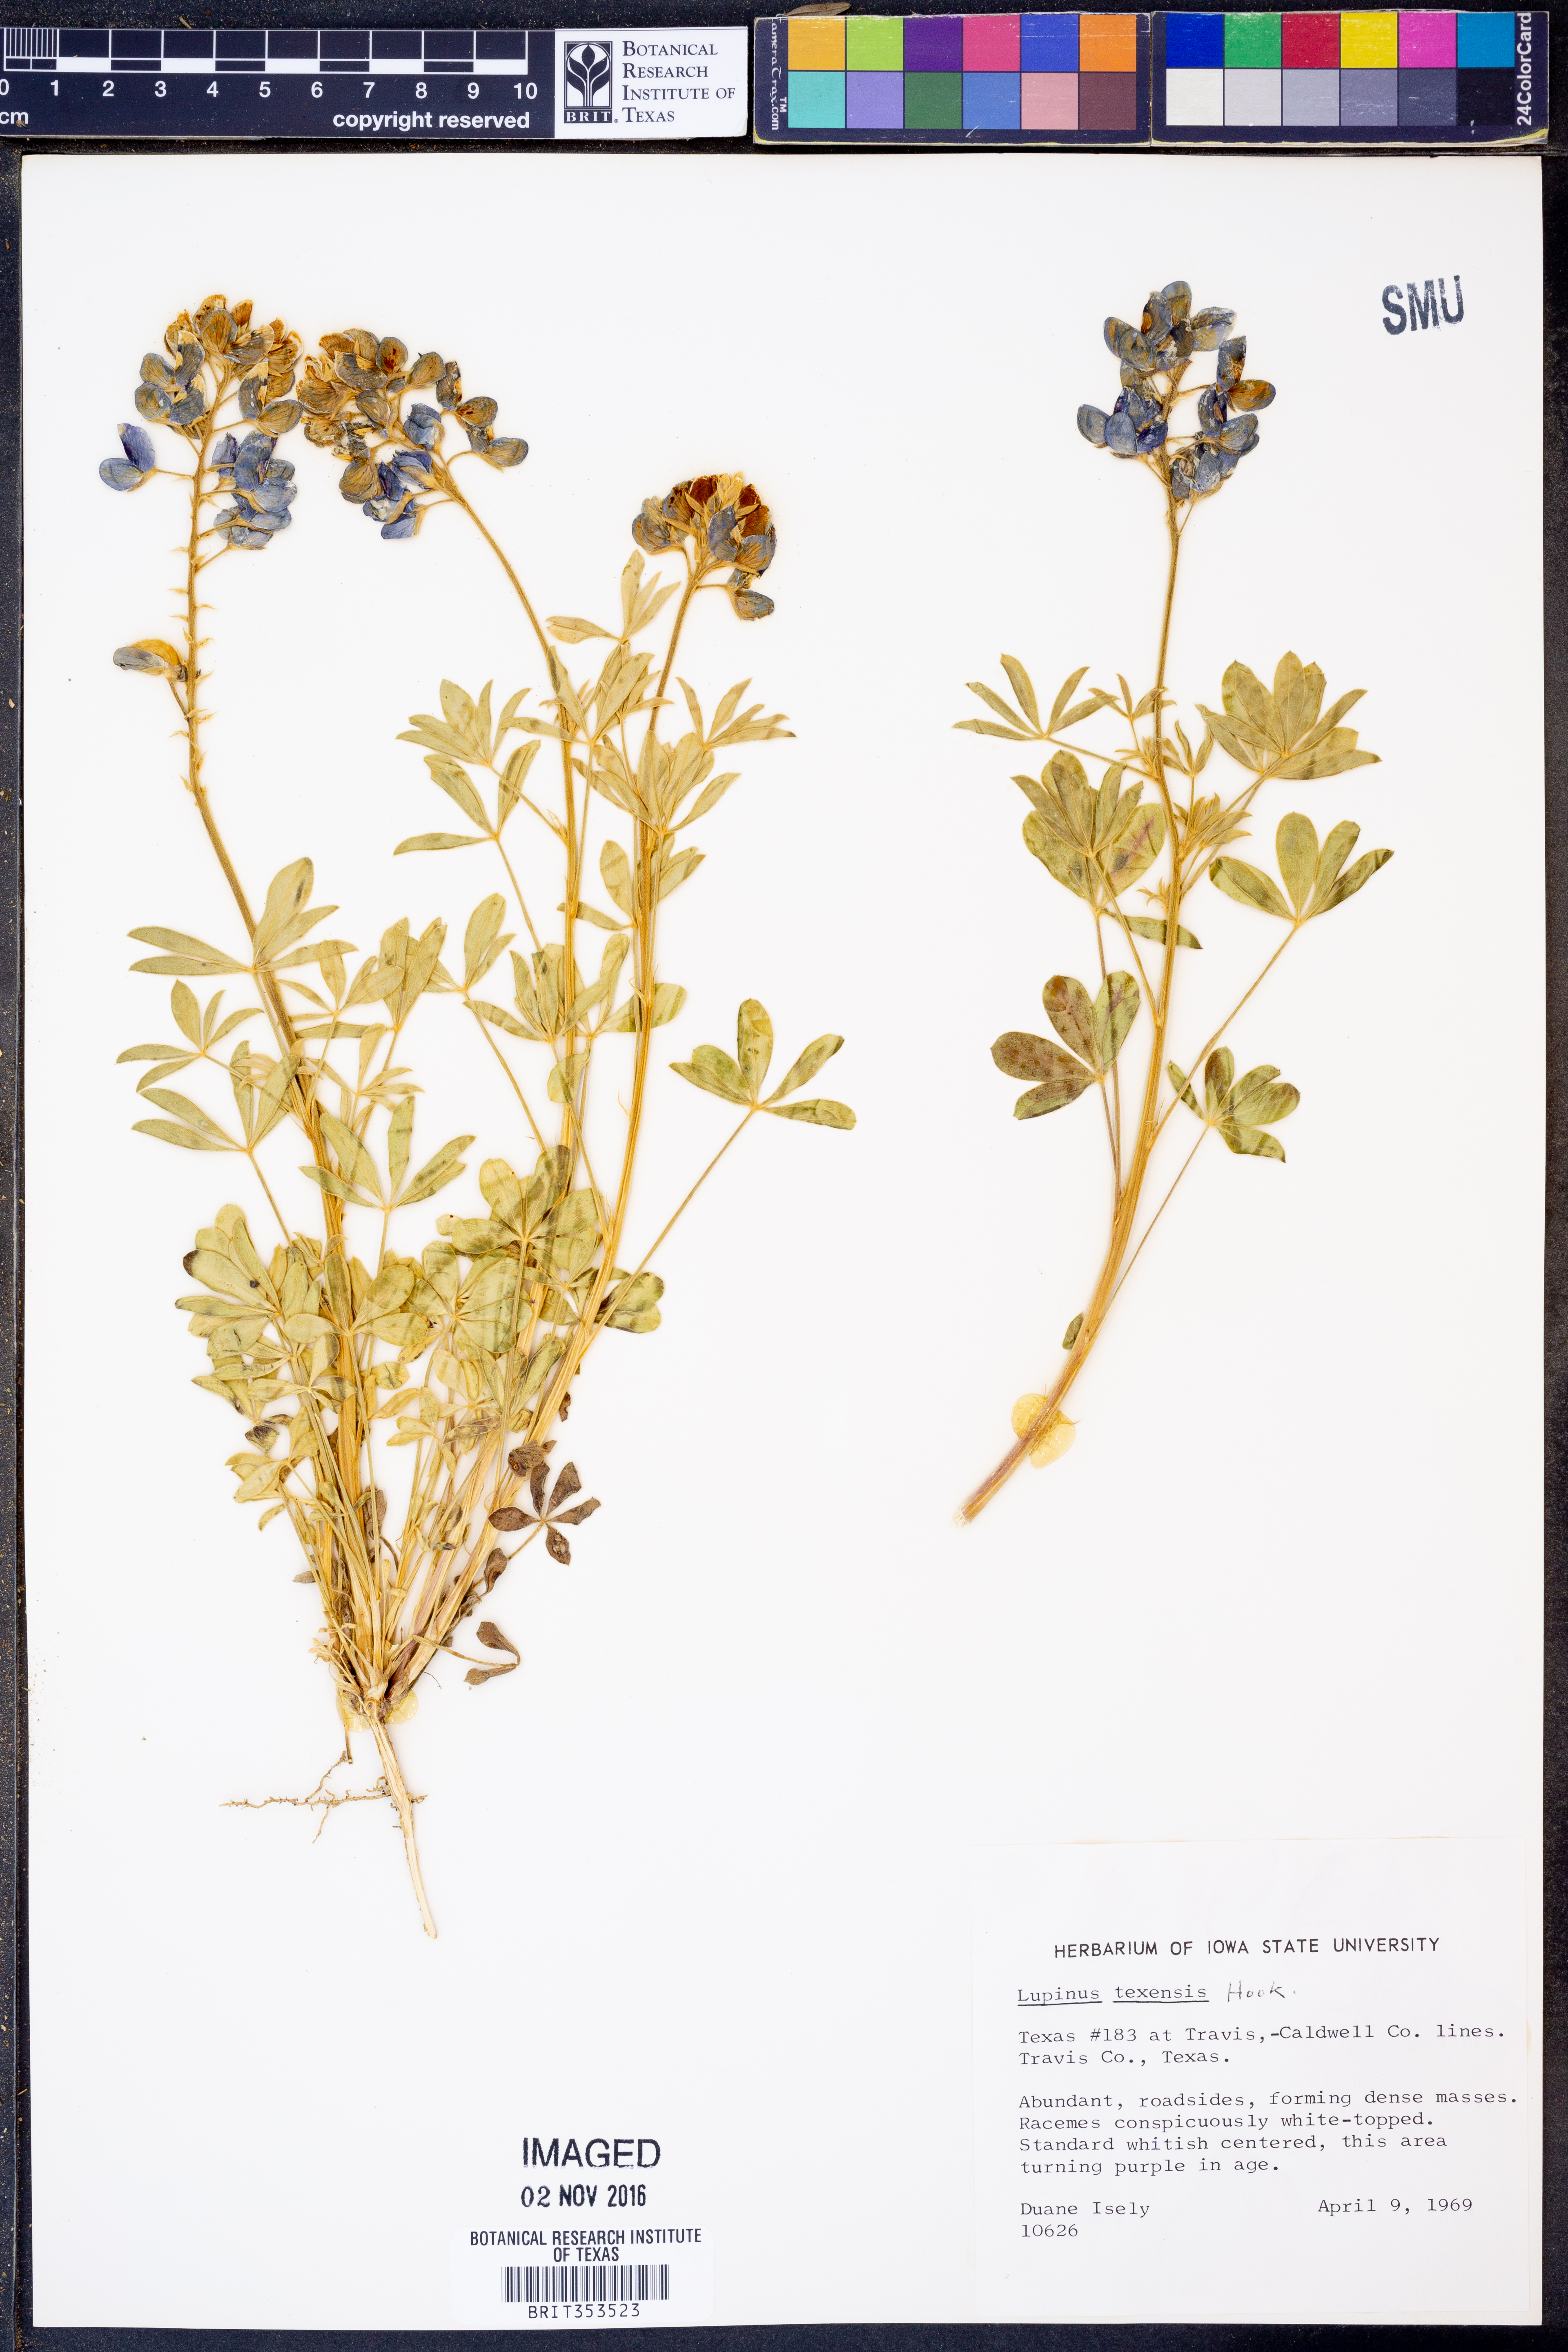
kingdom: Plantae
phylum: Tracheophyta
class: Magnoliopsida
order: Fabales
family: Fabaceae
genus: Lupinus
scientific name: Lupinus texensis
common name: Texas bluebonnet
